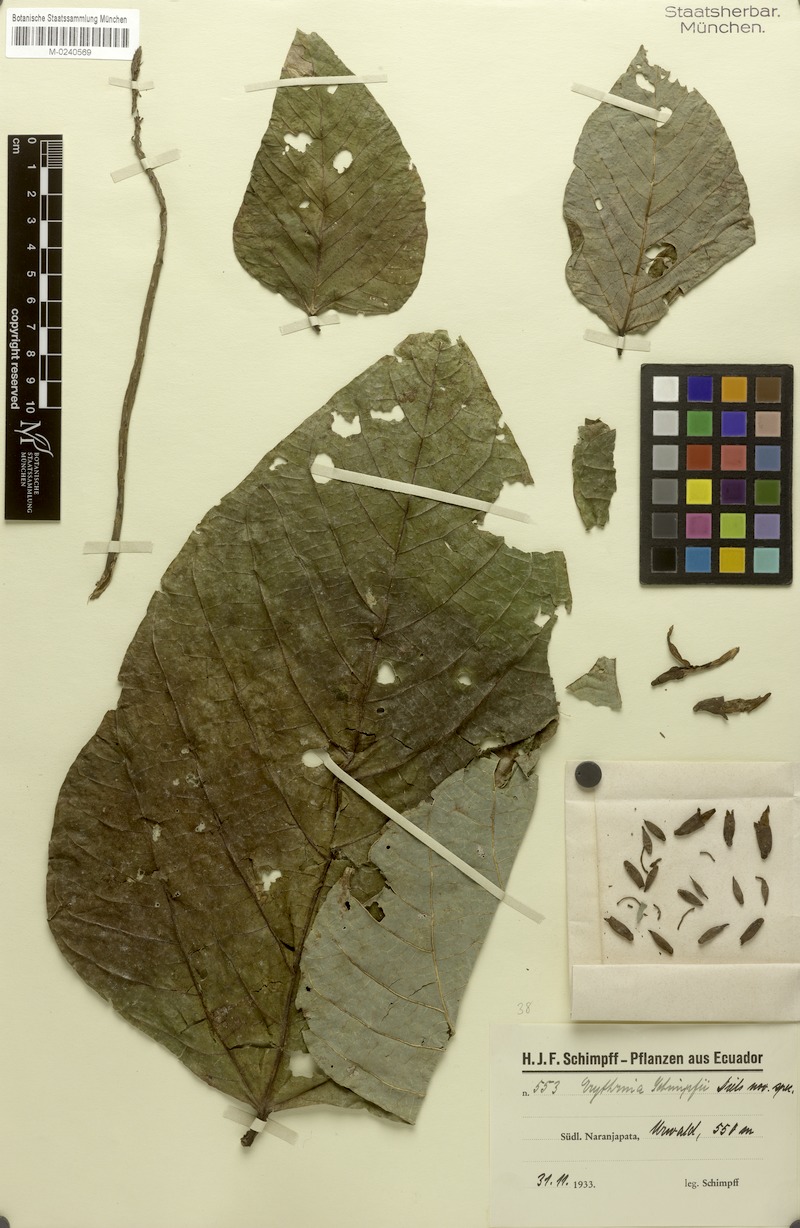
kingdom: Plantae
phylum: Tracheophyta
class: Magnoliopsida
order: Fabales
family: Fabaceae
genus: Erythrina
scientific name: Erythrina schimpffii
